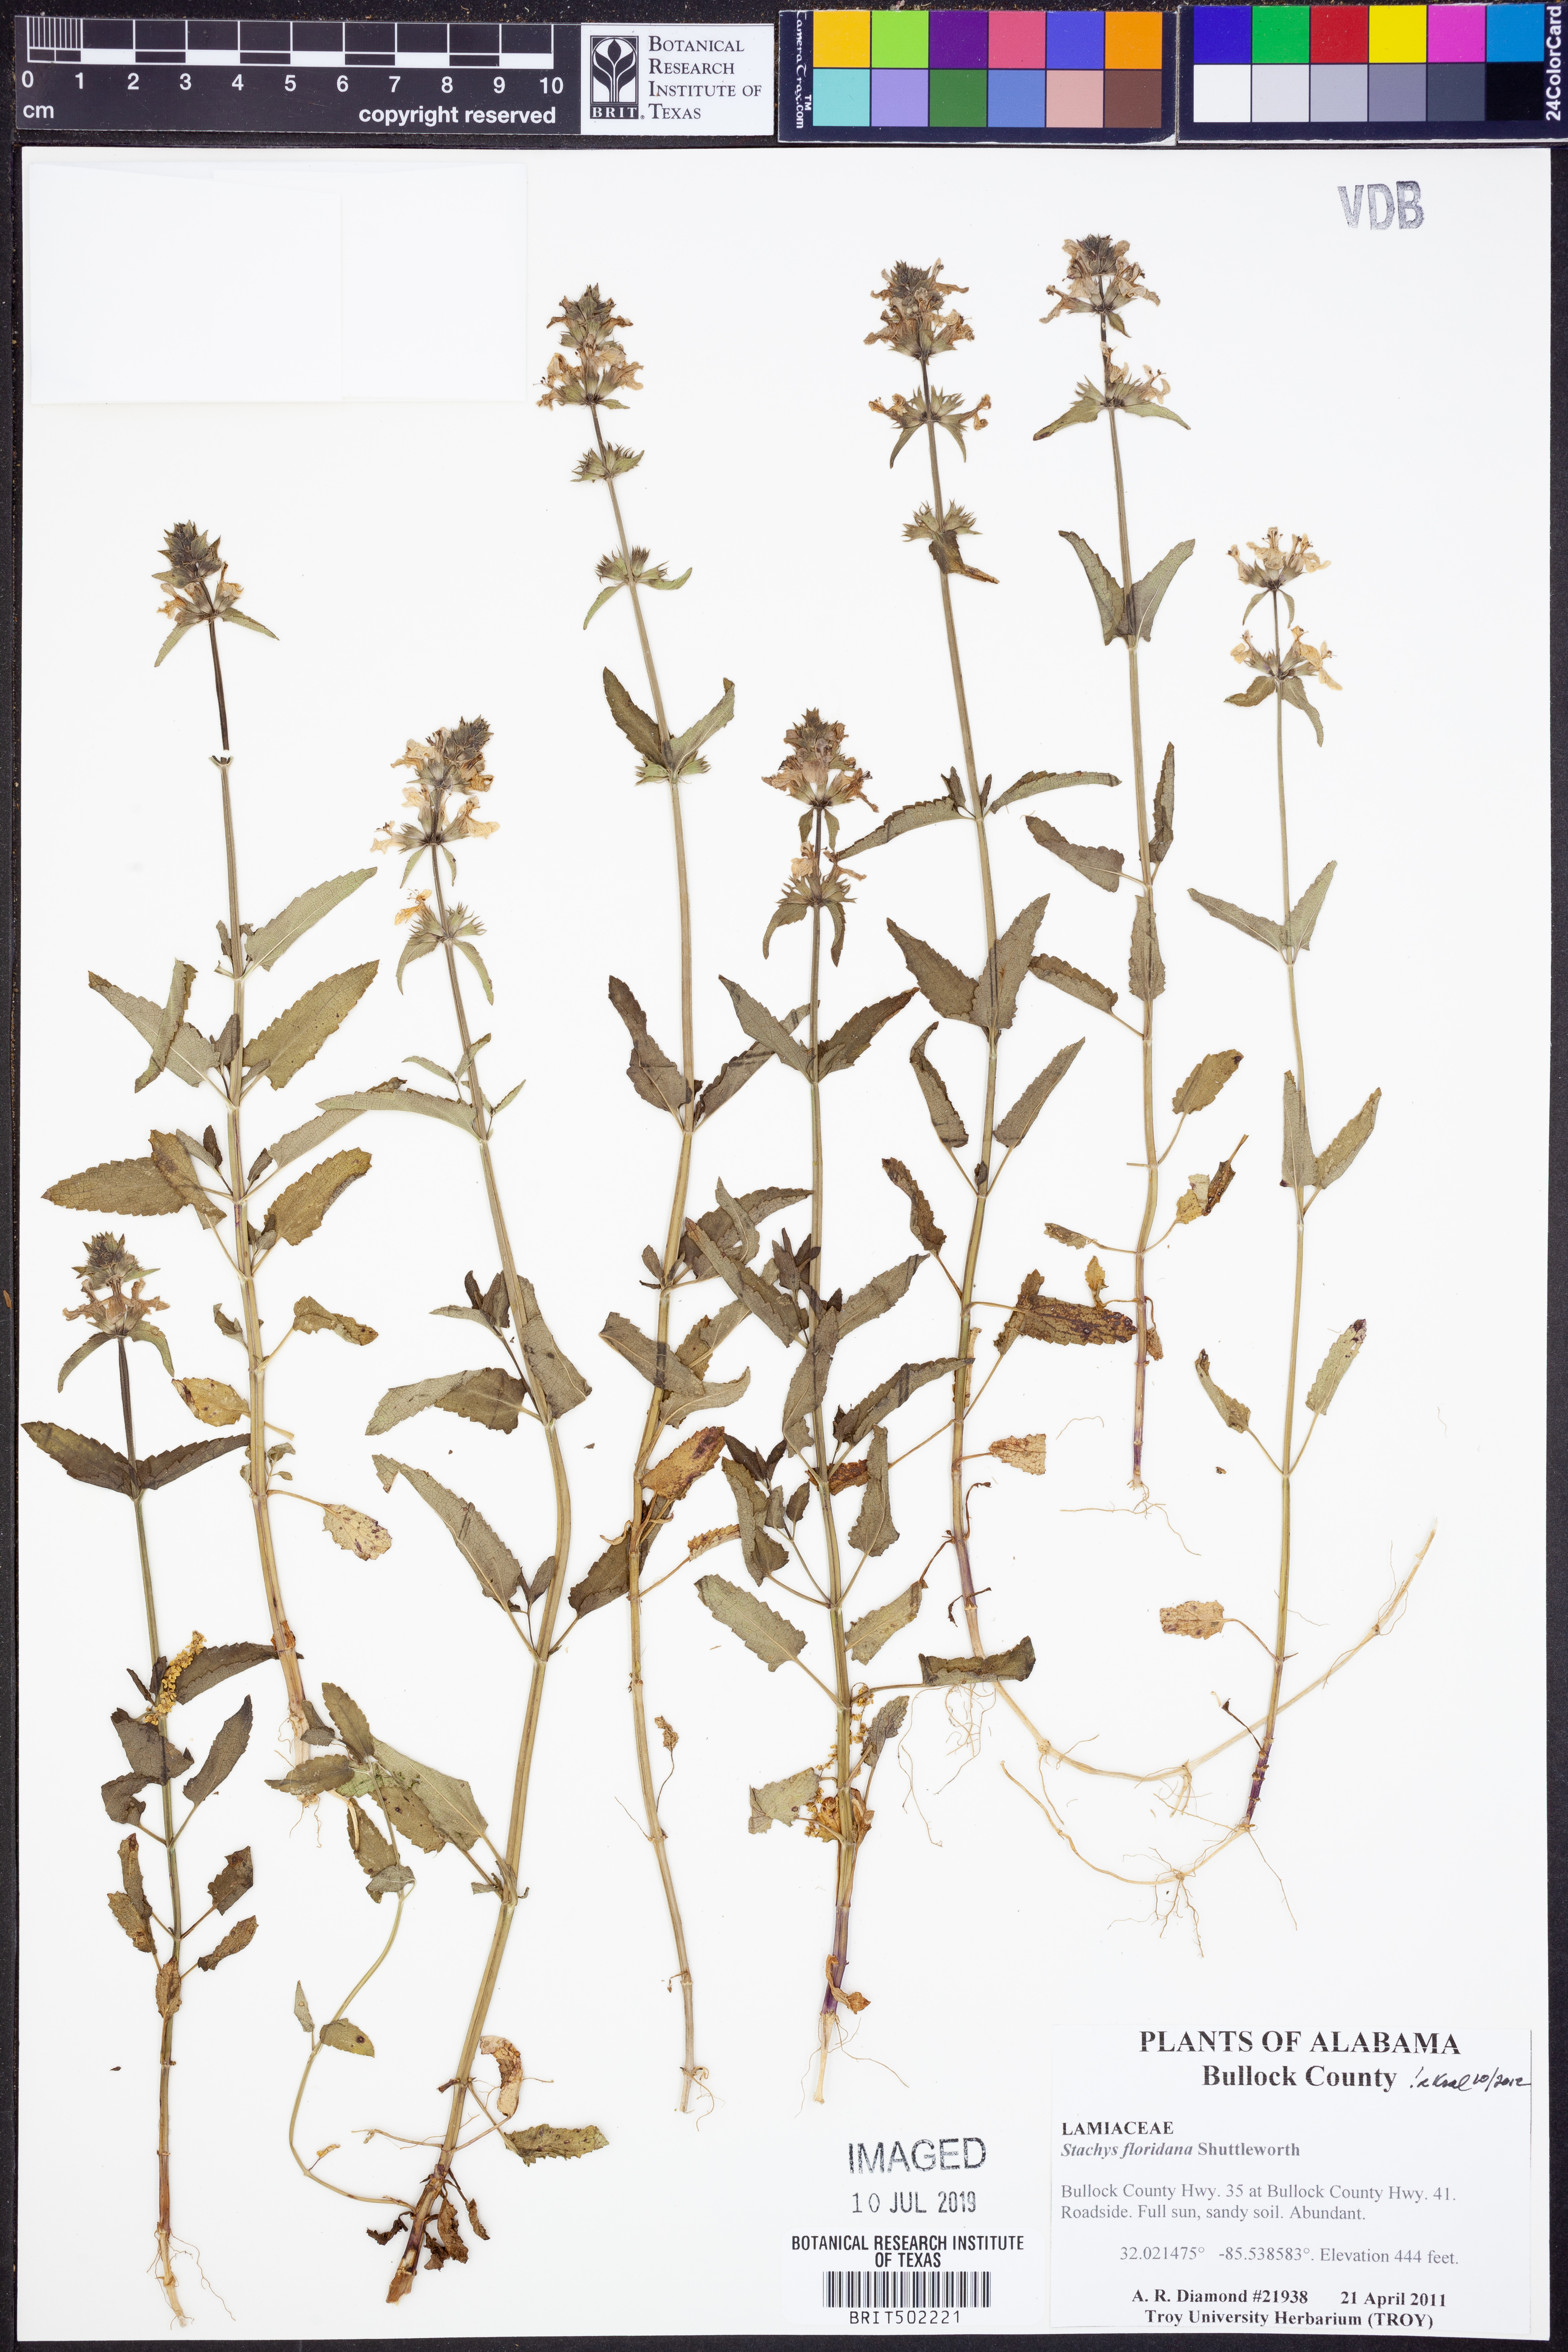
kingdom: Plantae
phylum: Tracheophyta
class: Magnoliopsida
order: Lamiales
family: Lamiaceae
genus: Stachys
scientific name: Stachys floridana
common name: Florida betony
